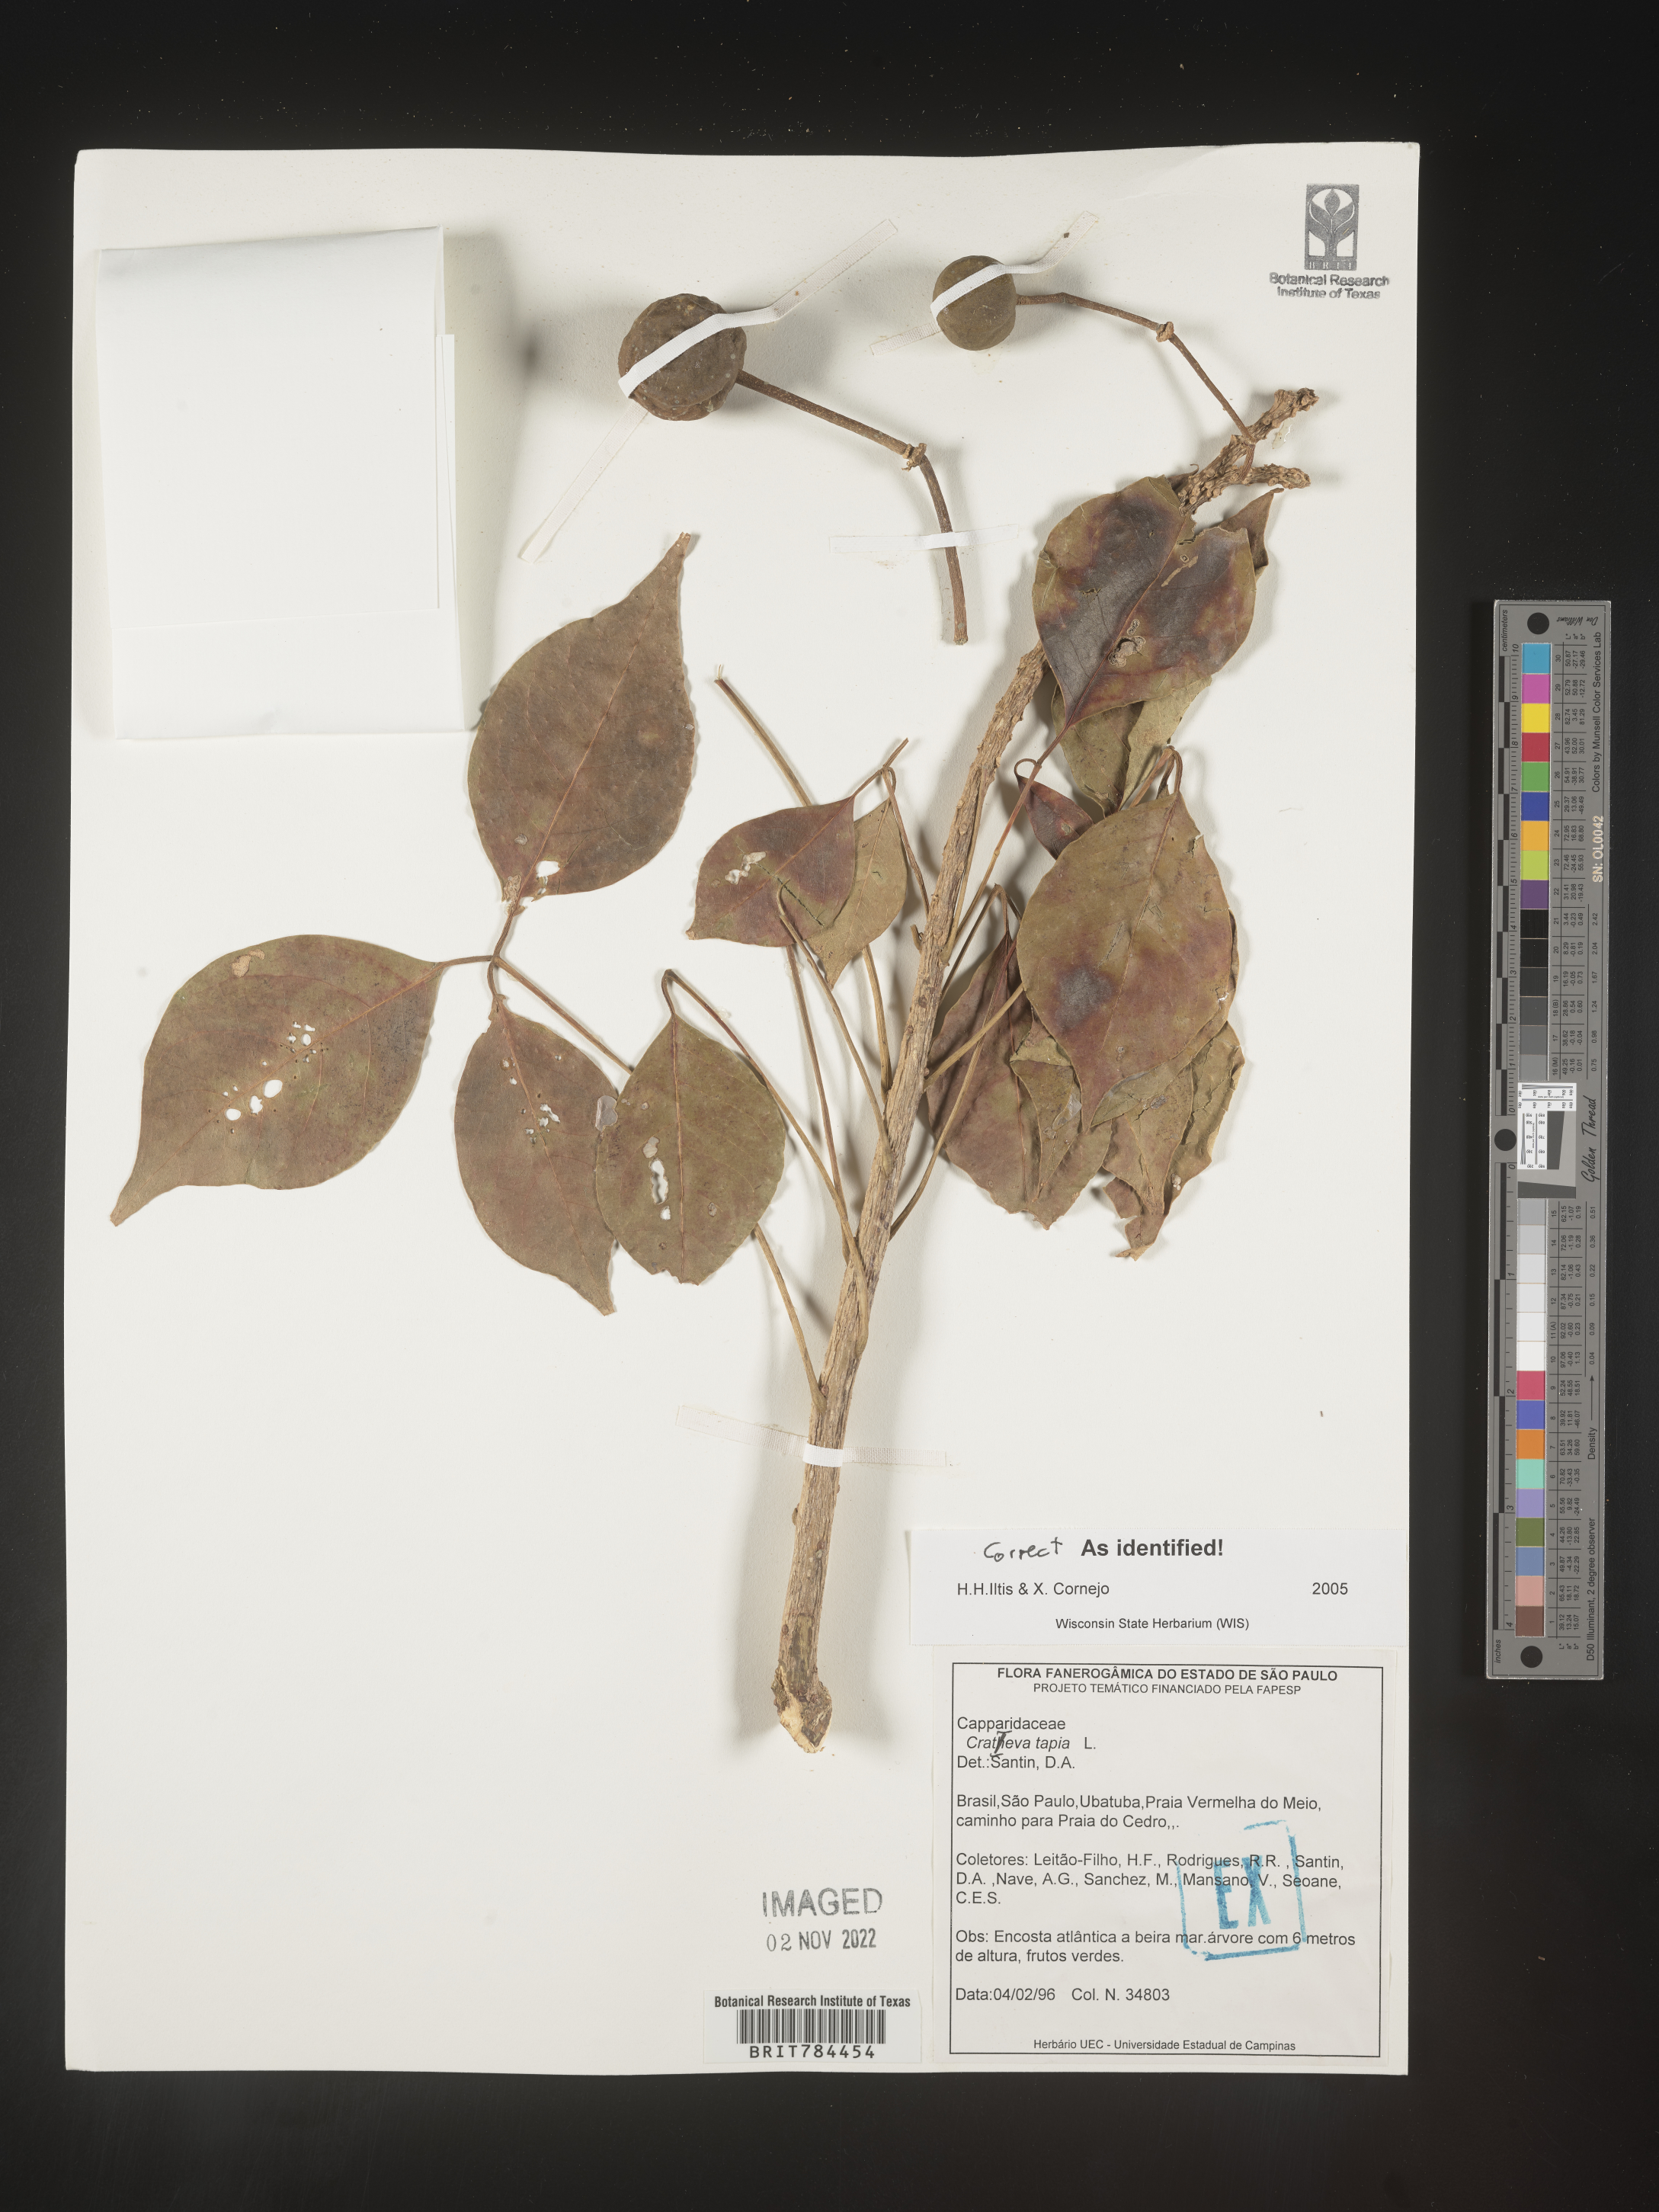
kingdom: Plantae
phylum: Tracheophyta
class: Magnoliopsida
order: Brassicales
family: Capparaceae
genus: Crateva
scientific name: Crateva
